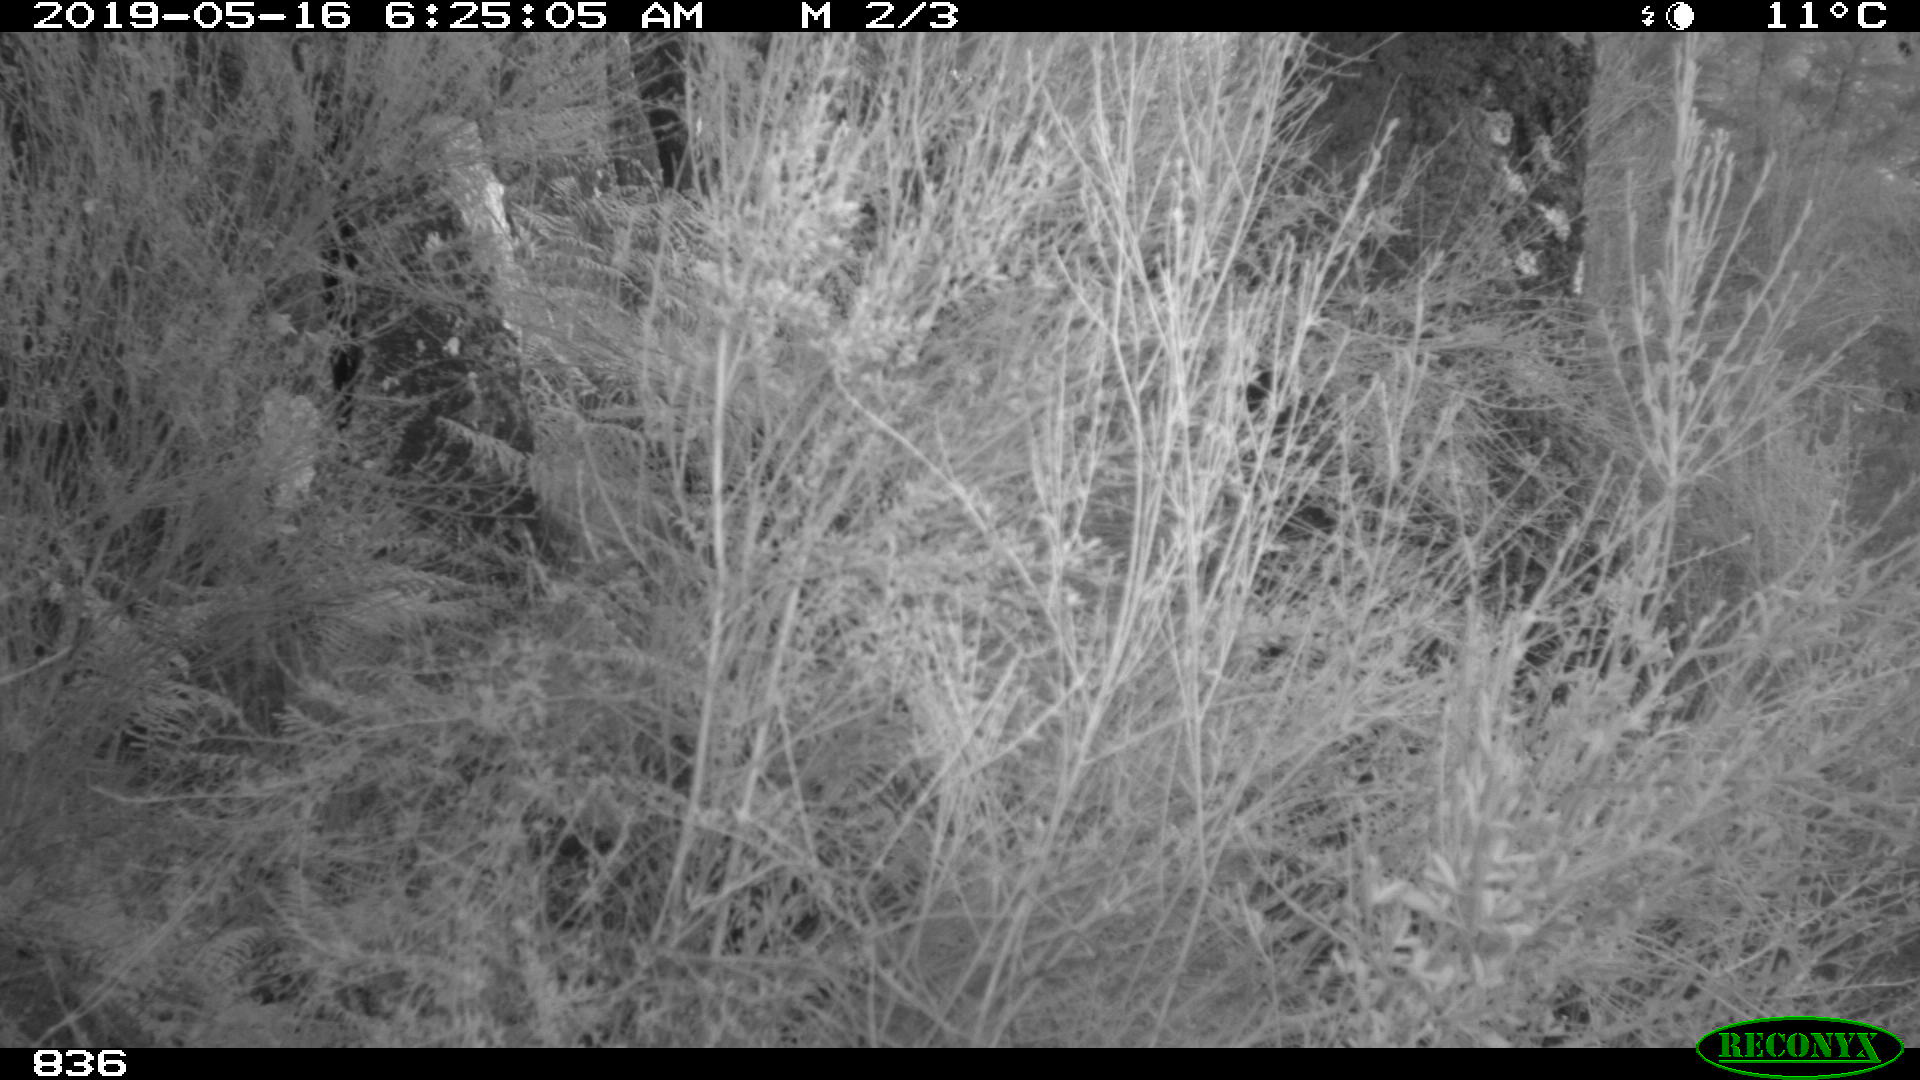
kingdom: Animalia
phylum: Chordata
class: Mammalia
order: Artiodactyla
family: Suidae
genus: Sus
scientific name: Sus scrofa
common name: Wild boar
